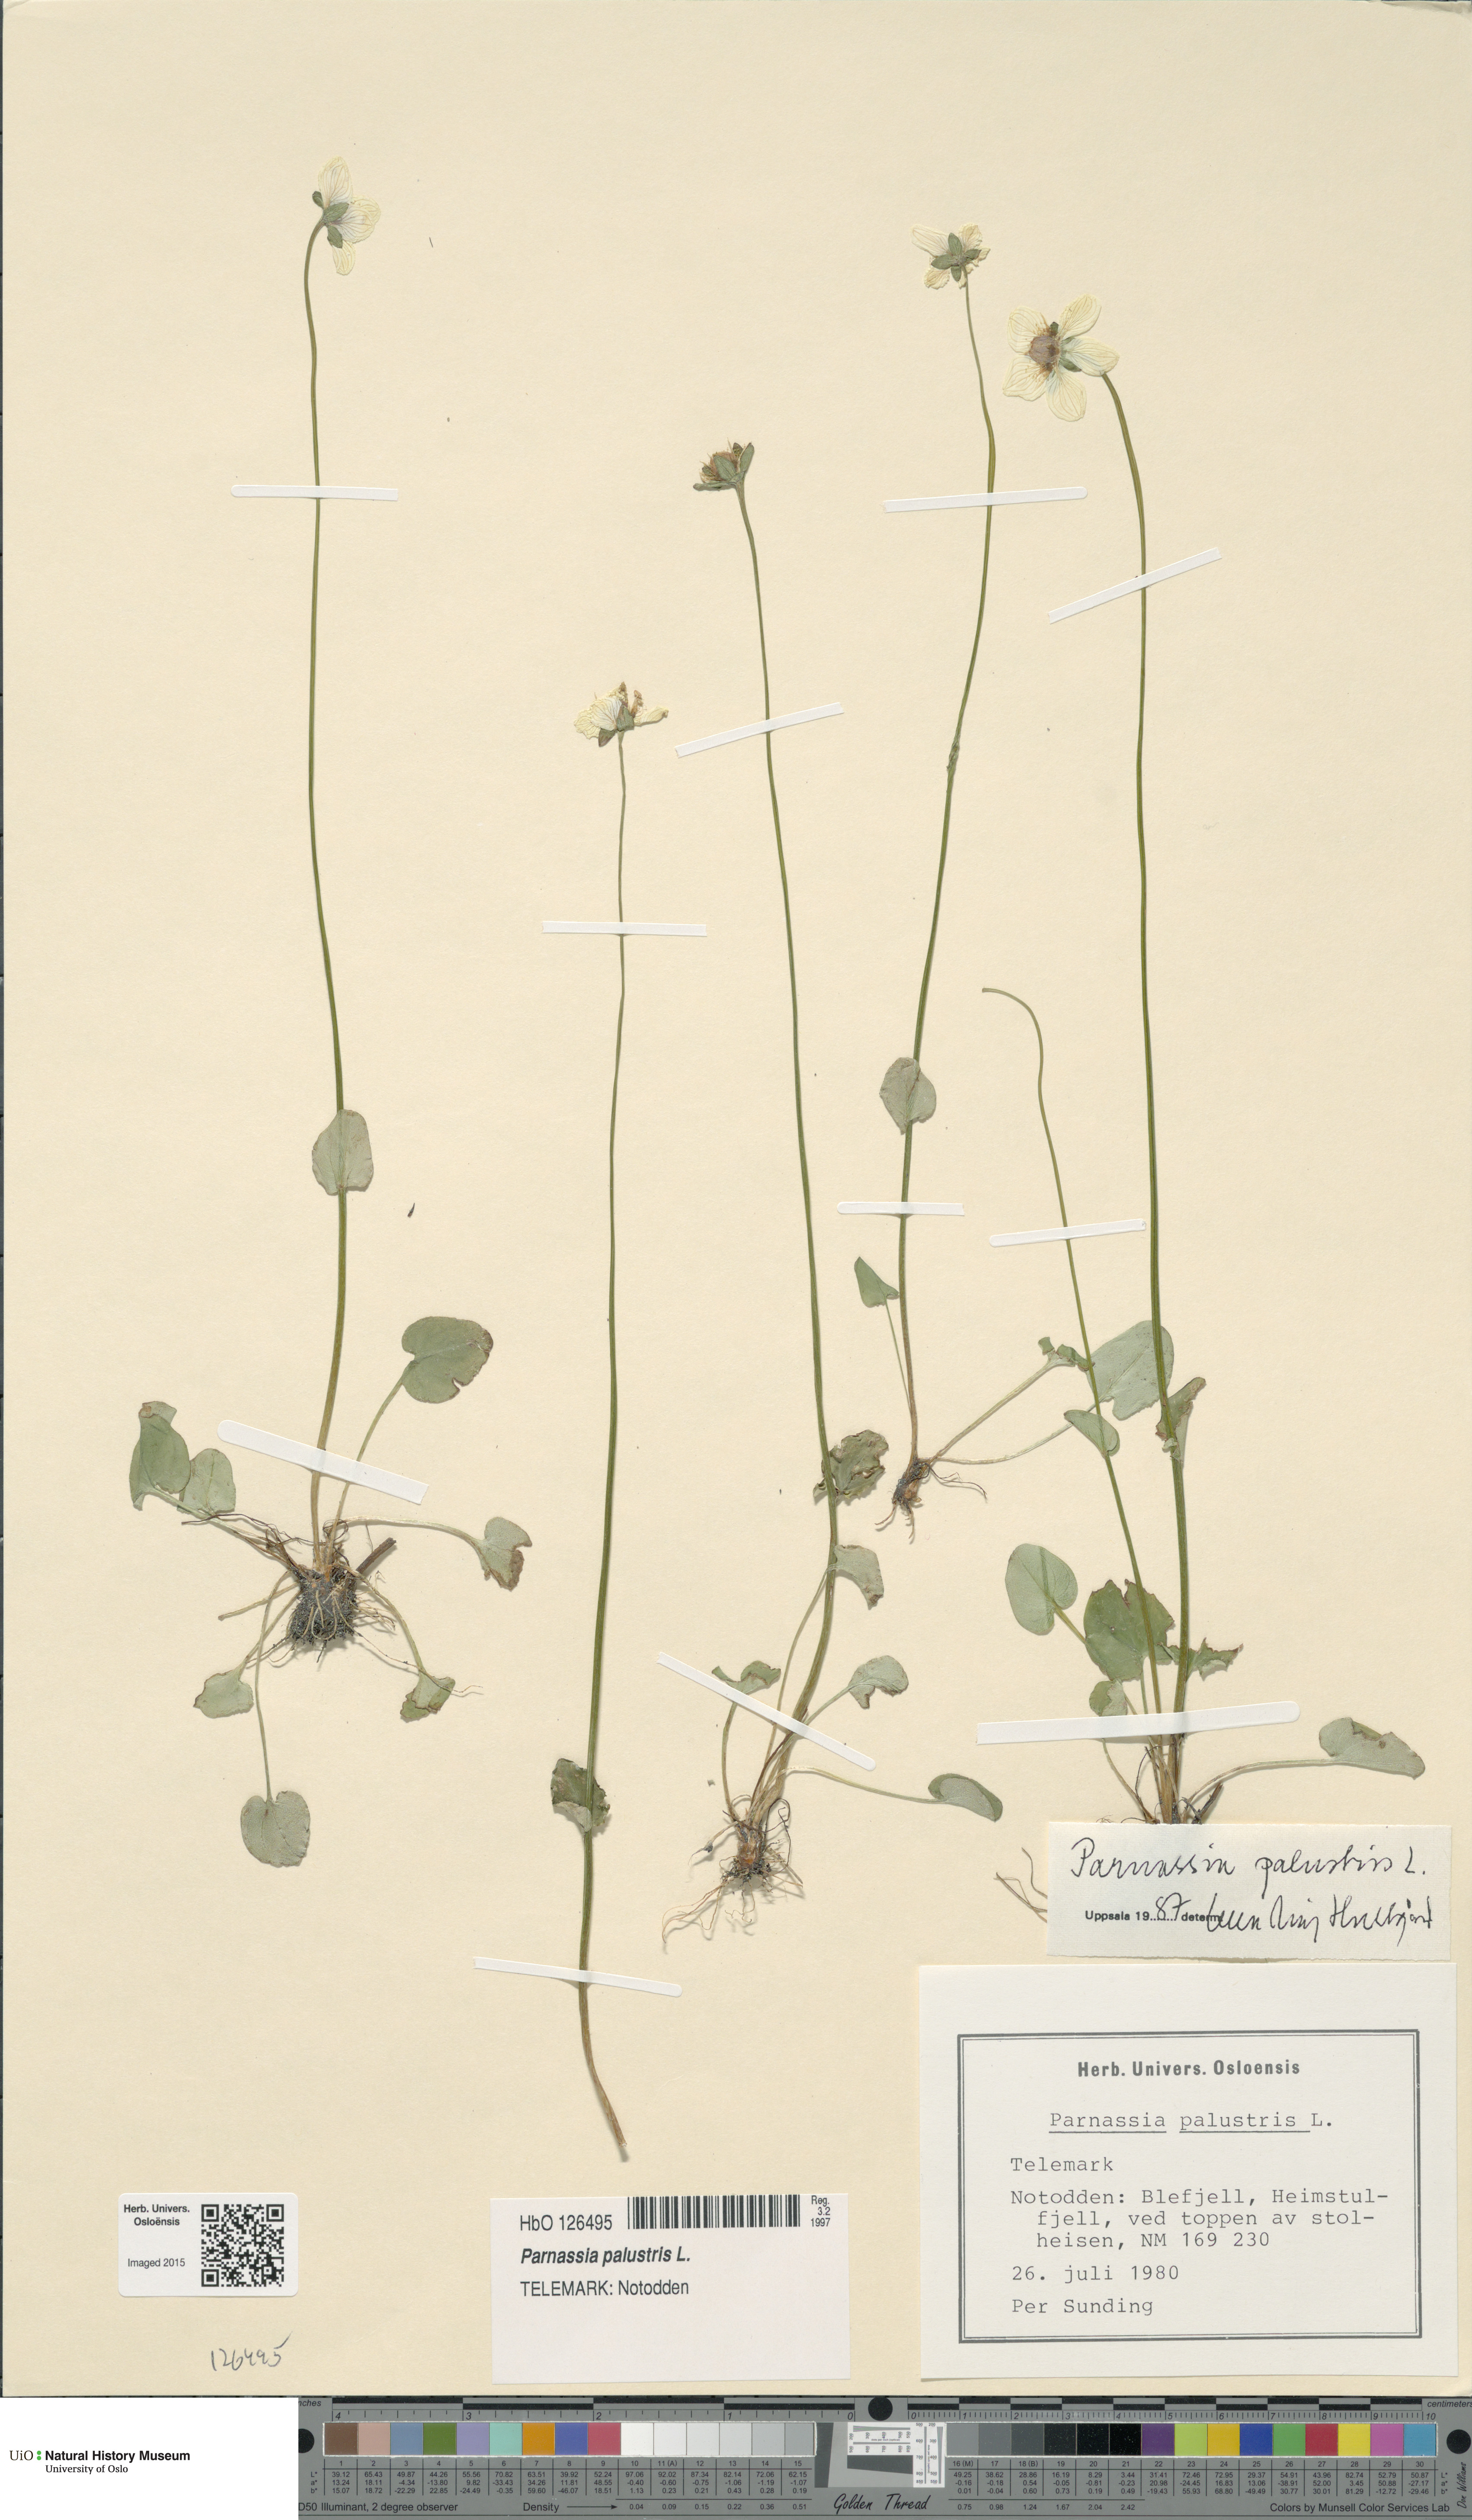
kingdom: Plantae
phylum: Tracheophyta
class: Magnoliopsida
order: Celastrales
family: Parnassiaceae
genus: Parnassia
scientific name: Parnassia palustris
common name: Grass-of-parnassus
